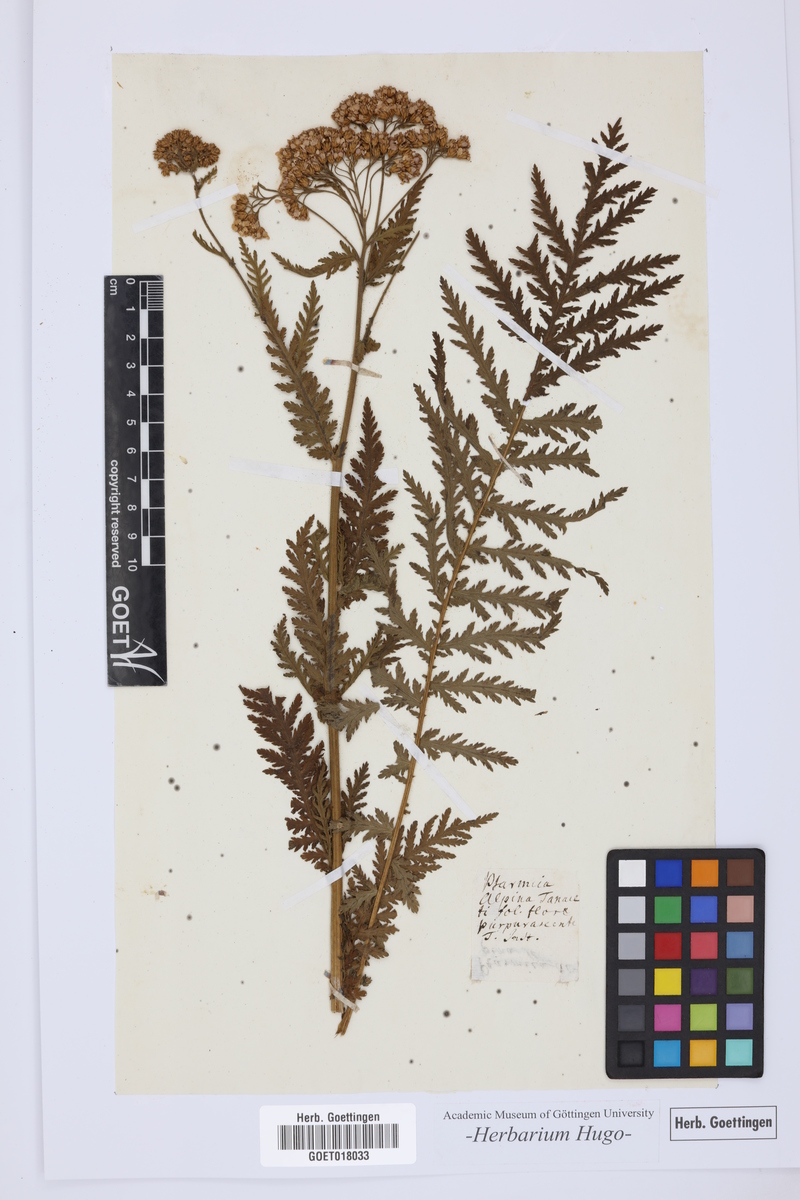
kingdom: Plantae
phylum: Tracheophyta
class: Magnoliopsida
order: Asterales
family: Asteraceae
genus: Ptarmica
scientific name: Ptarmica
